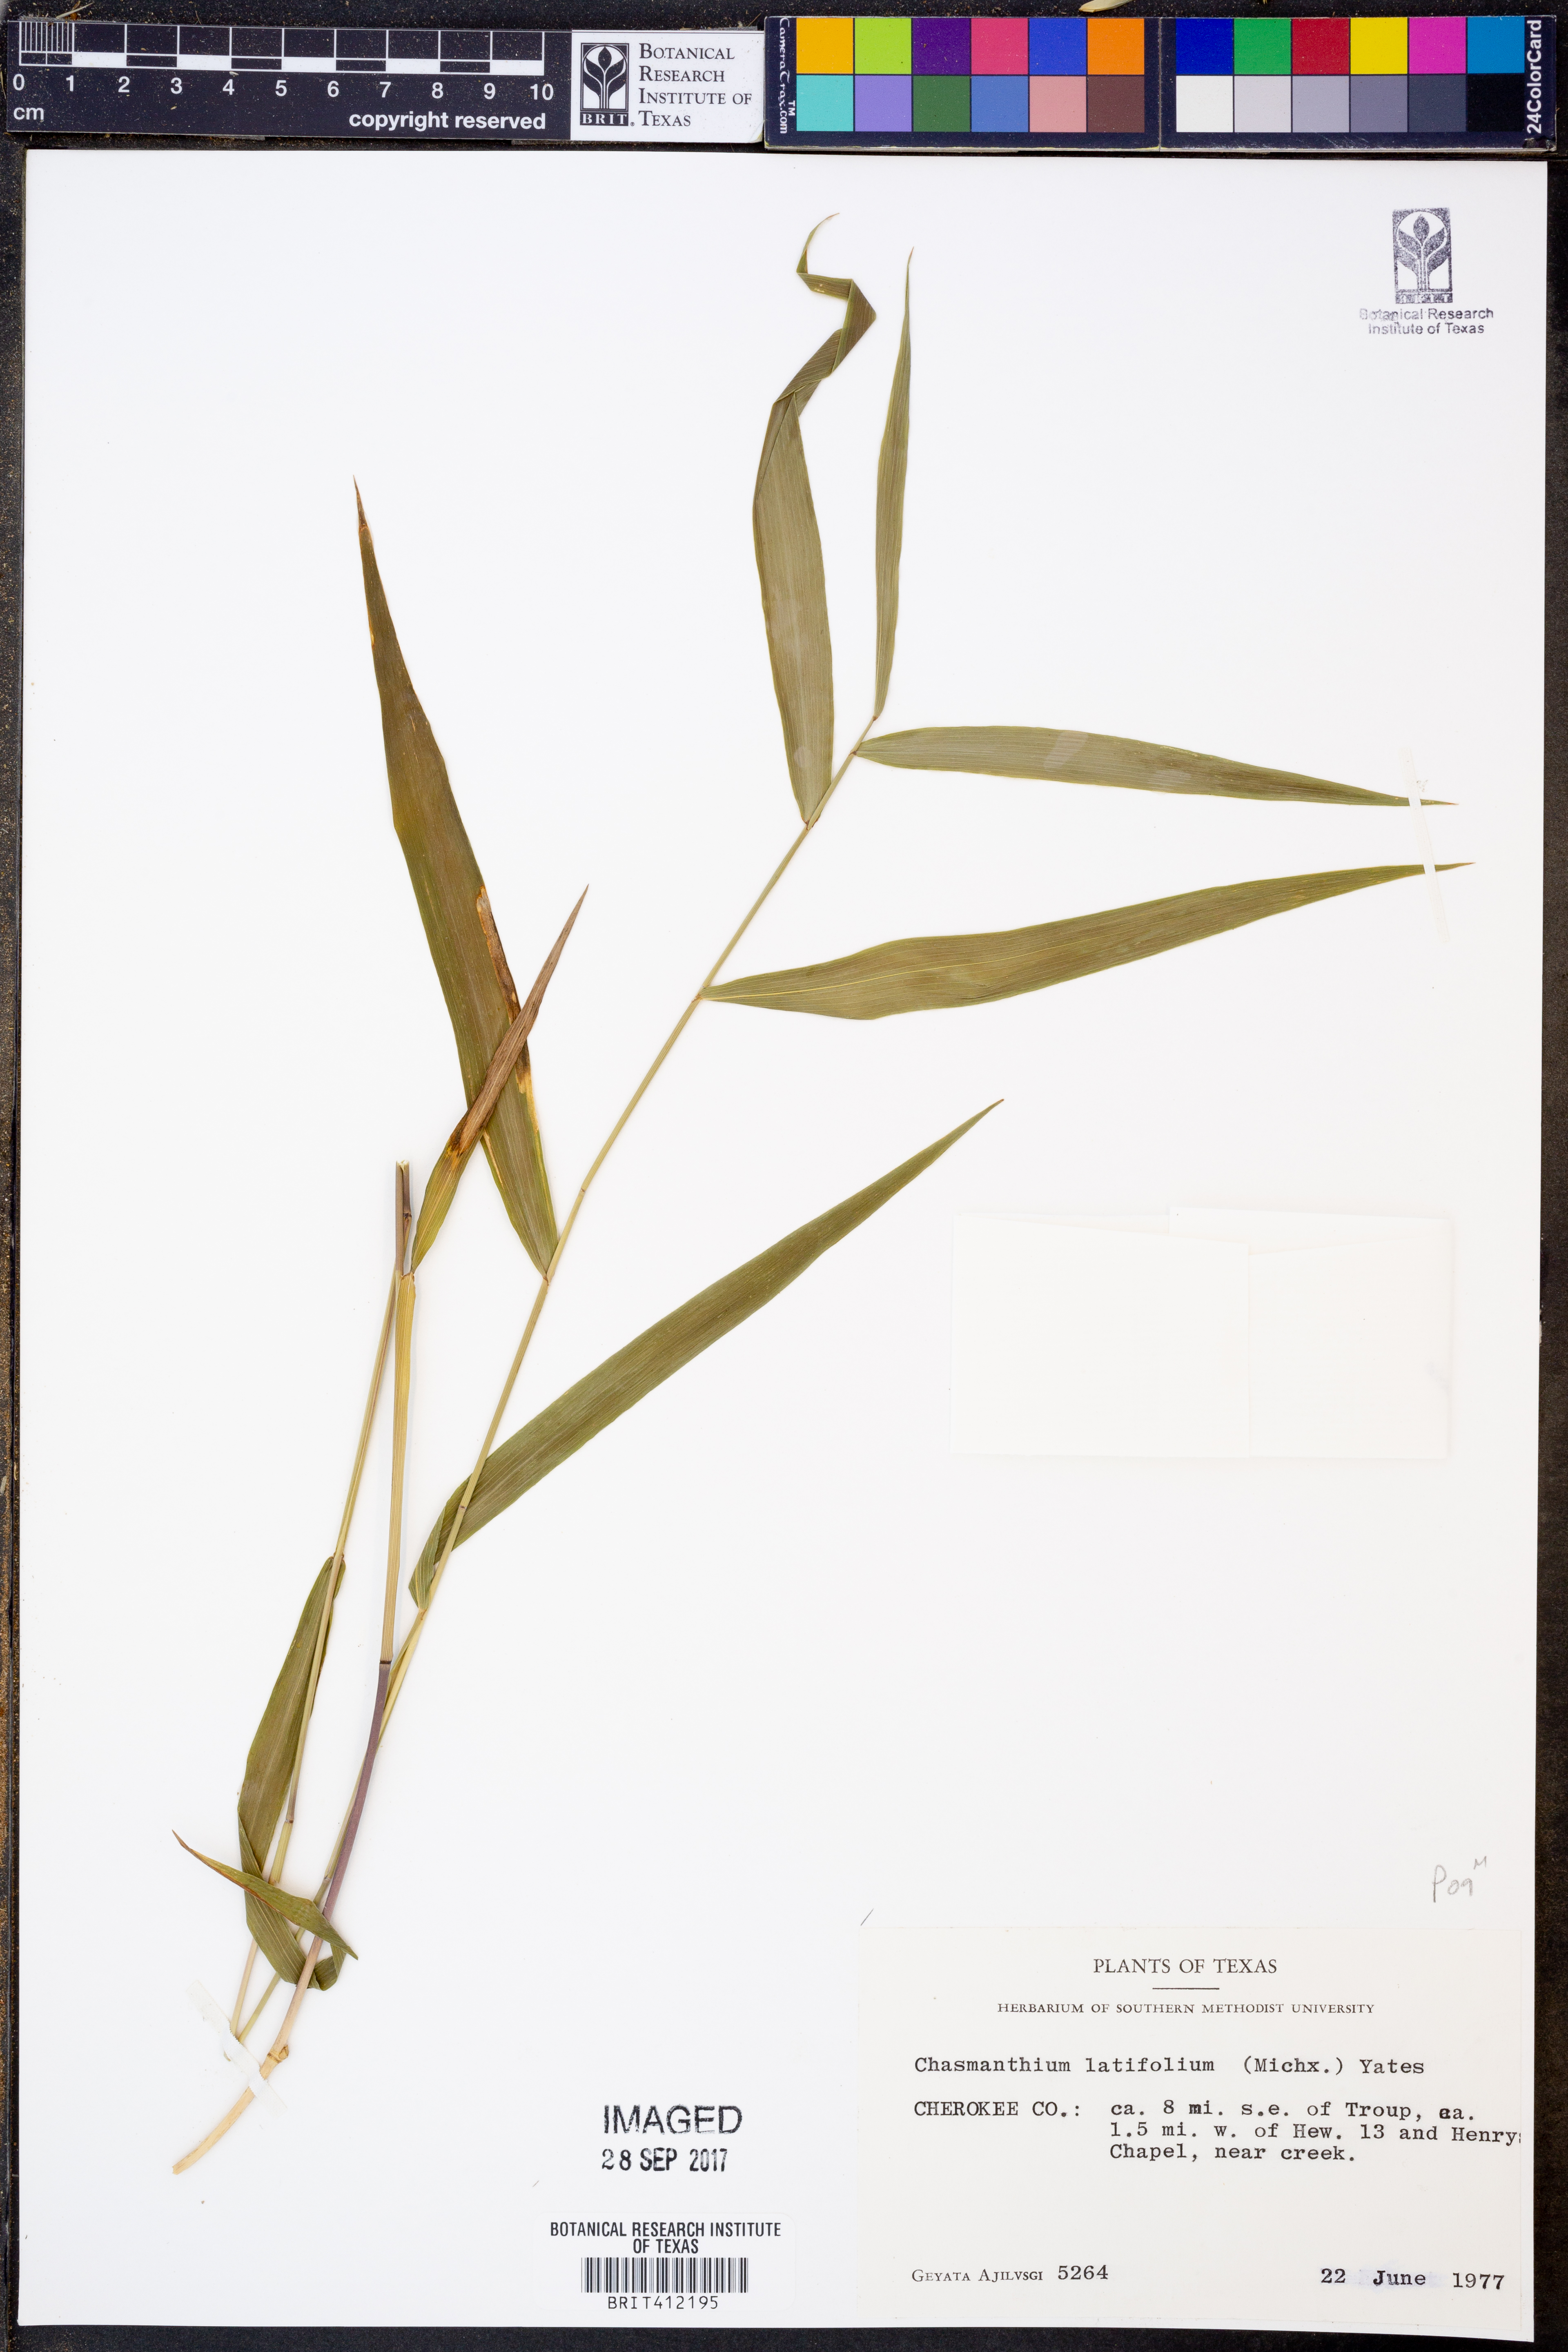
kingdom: Plantae
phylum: Tracheophyta
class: Liliopsida
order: Poales
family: Poaceae
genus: Chasmanthium
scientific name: Chasmanthium latifolium
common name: Broad-leaved chasmanthium
